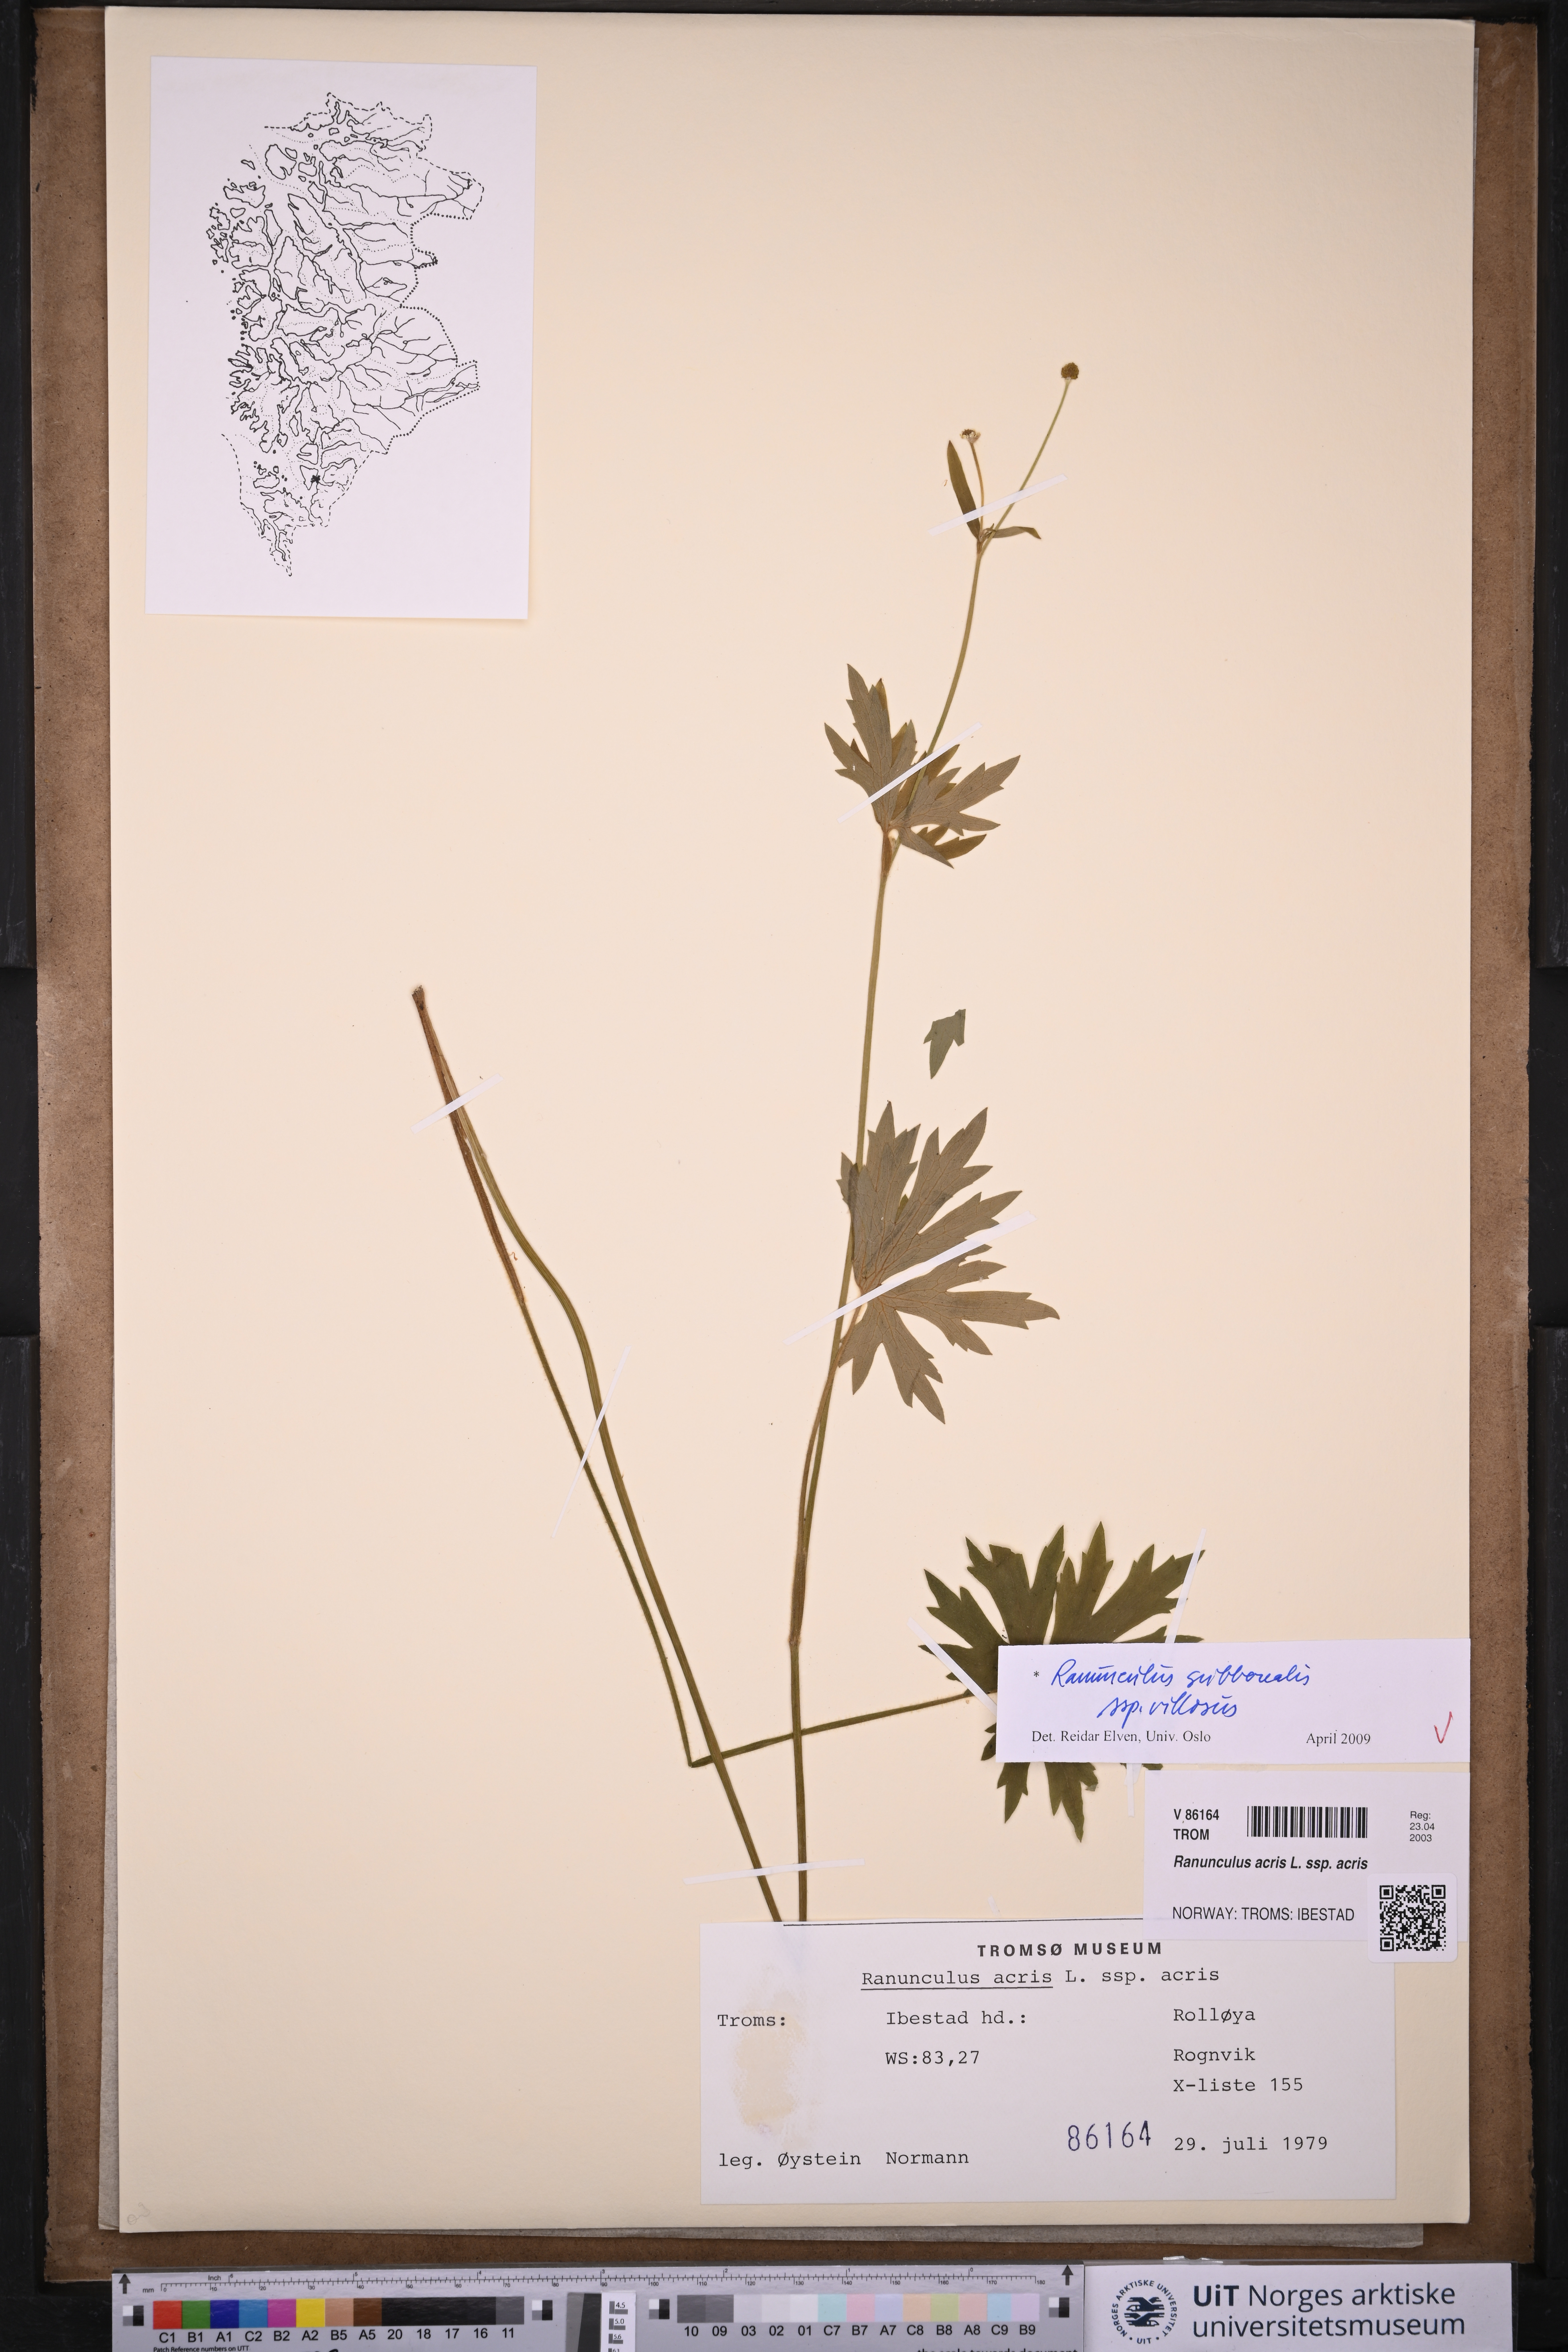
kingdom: Plantae
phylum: Tracheophyta
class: Magnoliopsida
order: Ranunculales
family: Ranunculaceae
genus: Ranunculus
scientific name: Ranunculus propinquus
